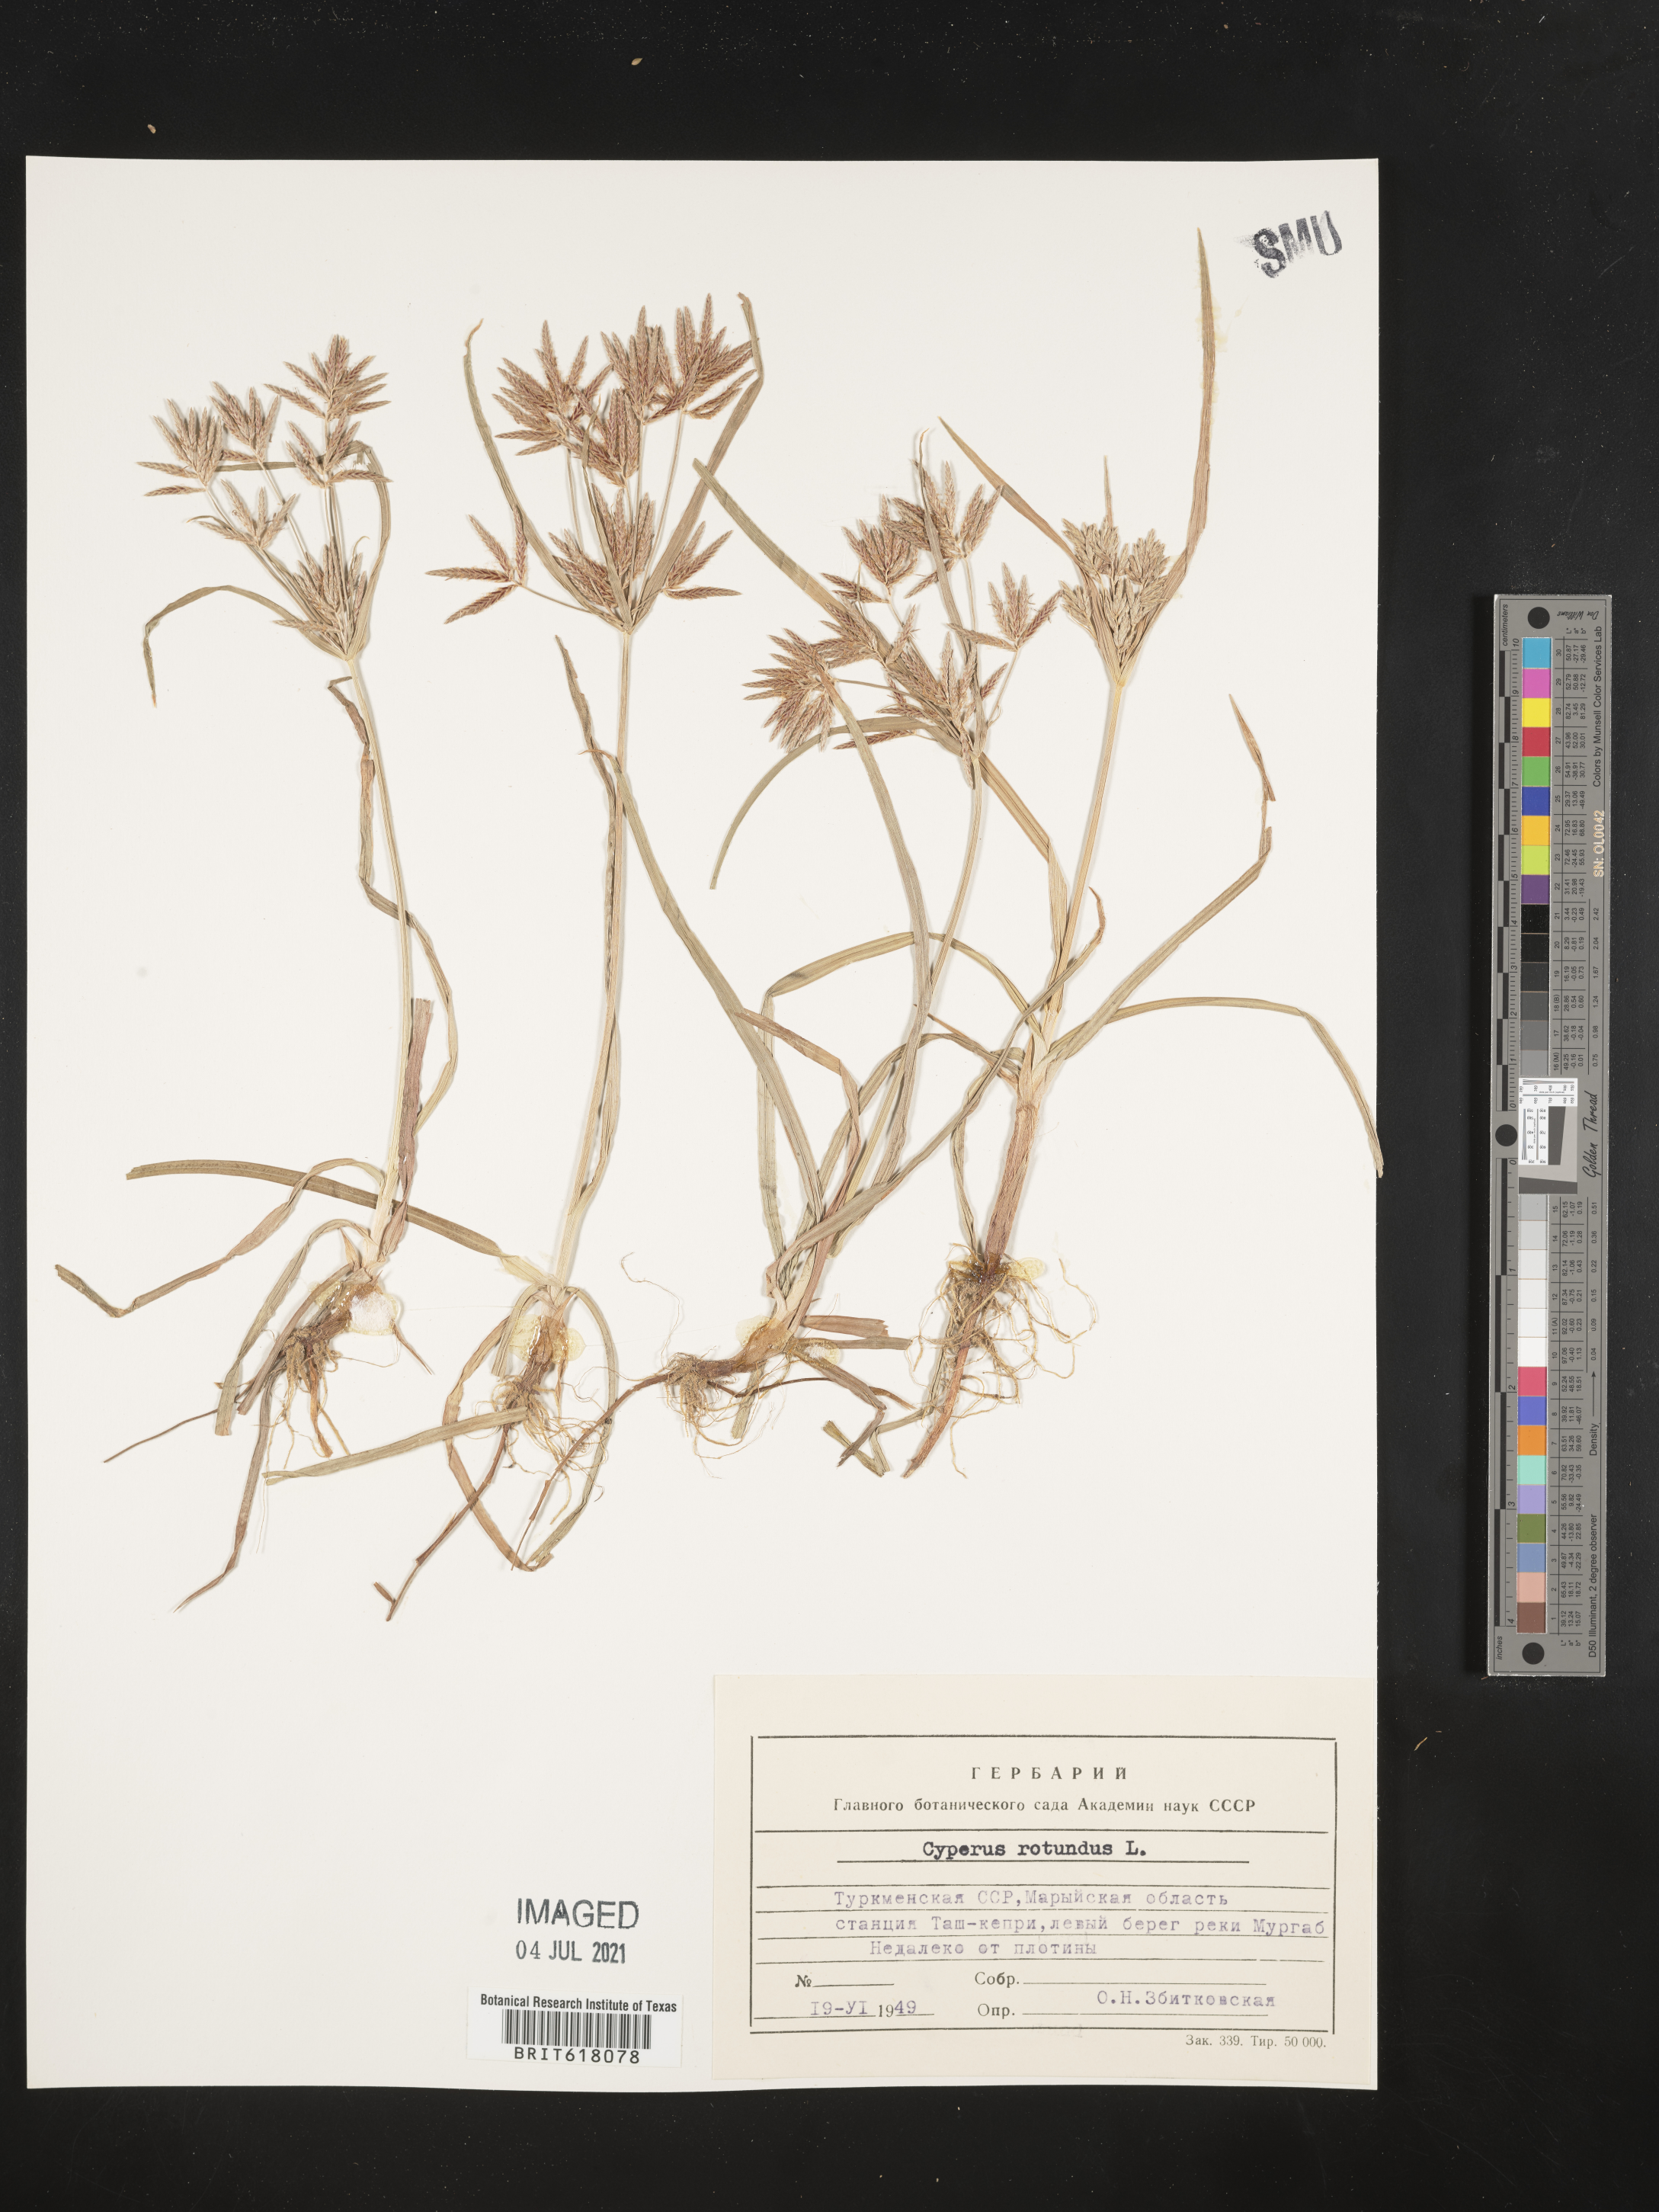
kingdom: Plantae
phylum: Tracheophyta
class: Liliopsida
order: Poales
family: Cyperaceae
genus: Cyperus
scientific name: Cyperus rotundus
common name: Nutgrass
